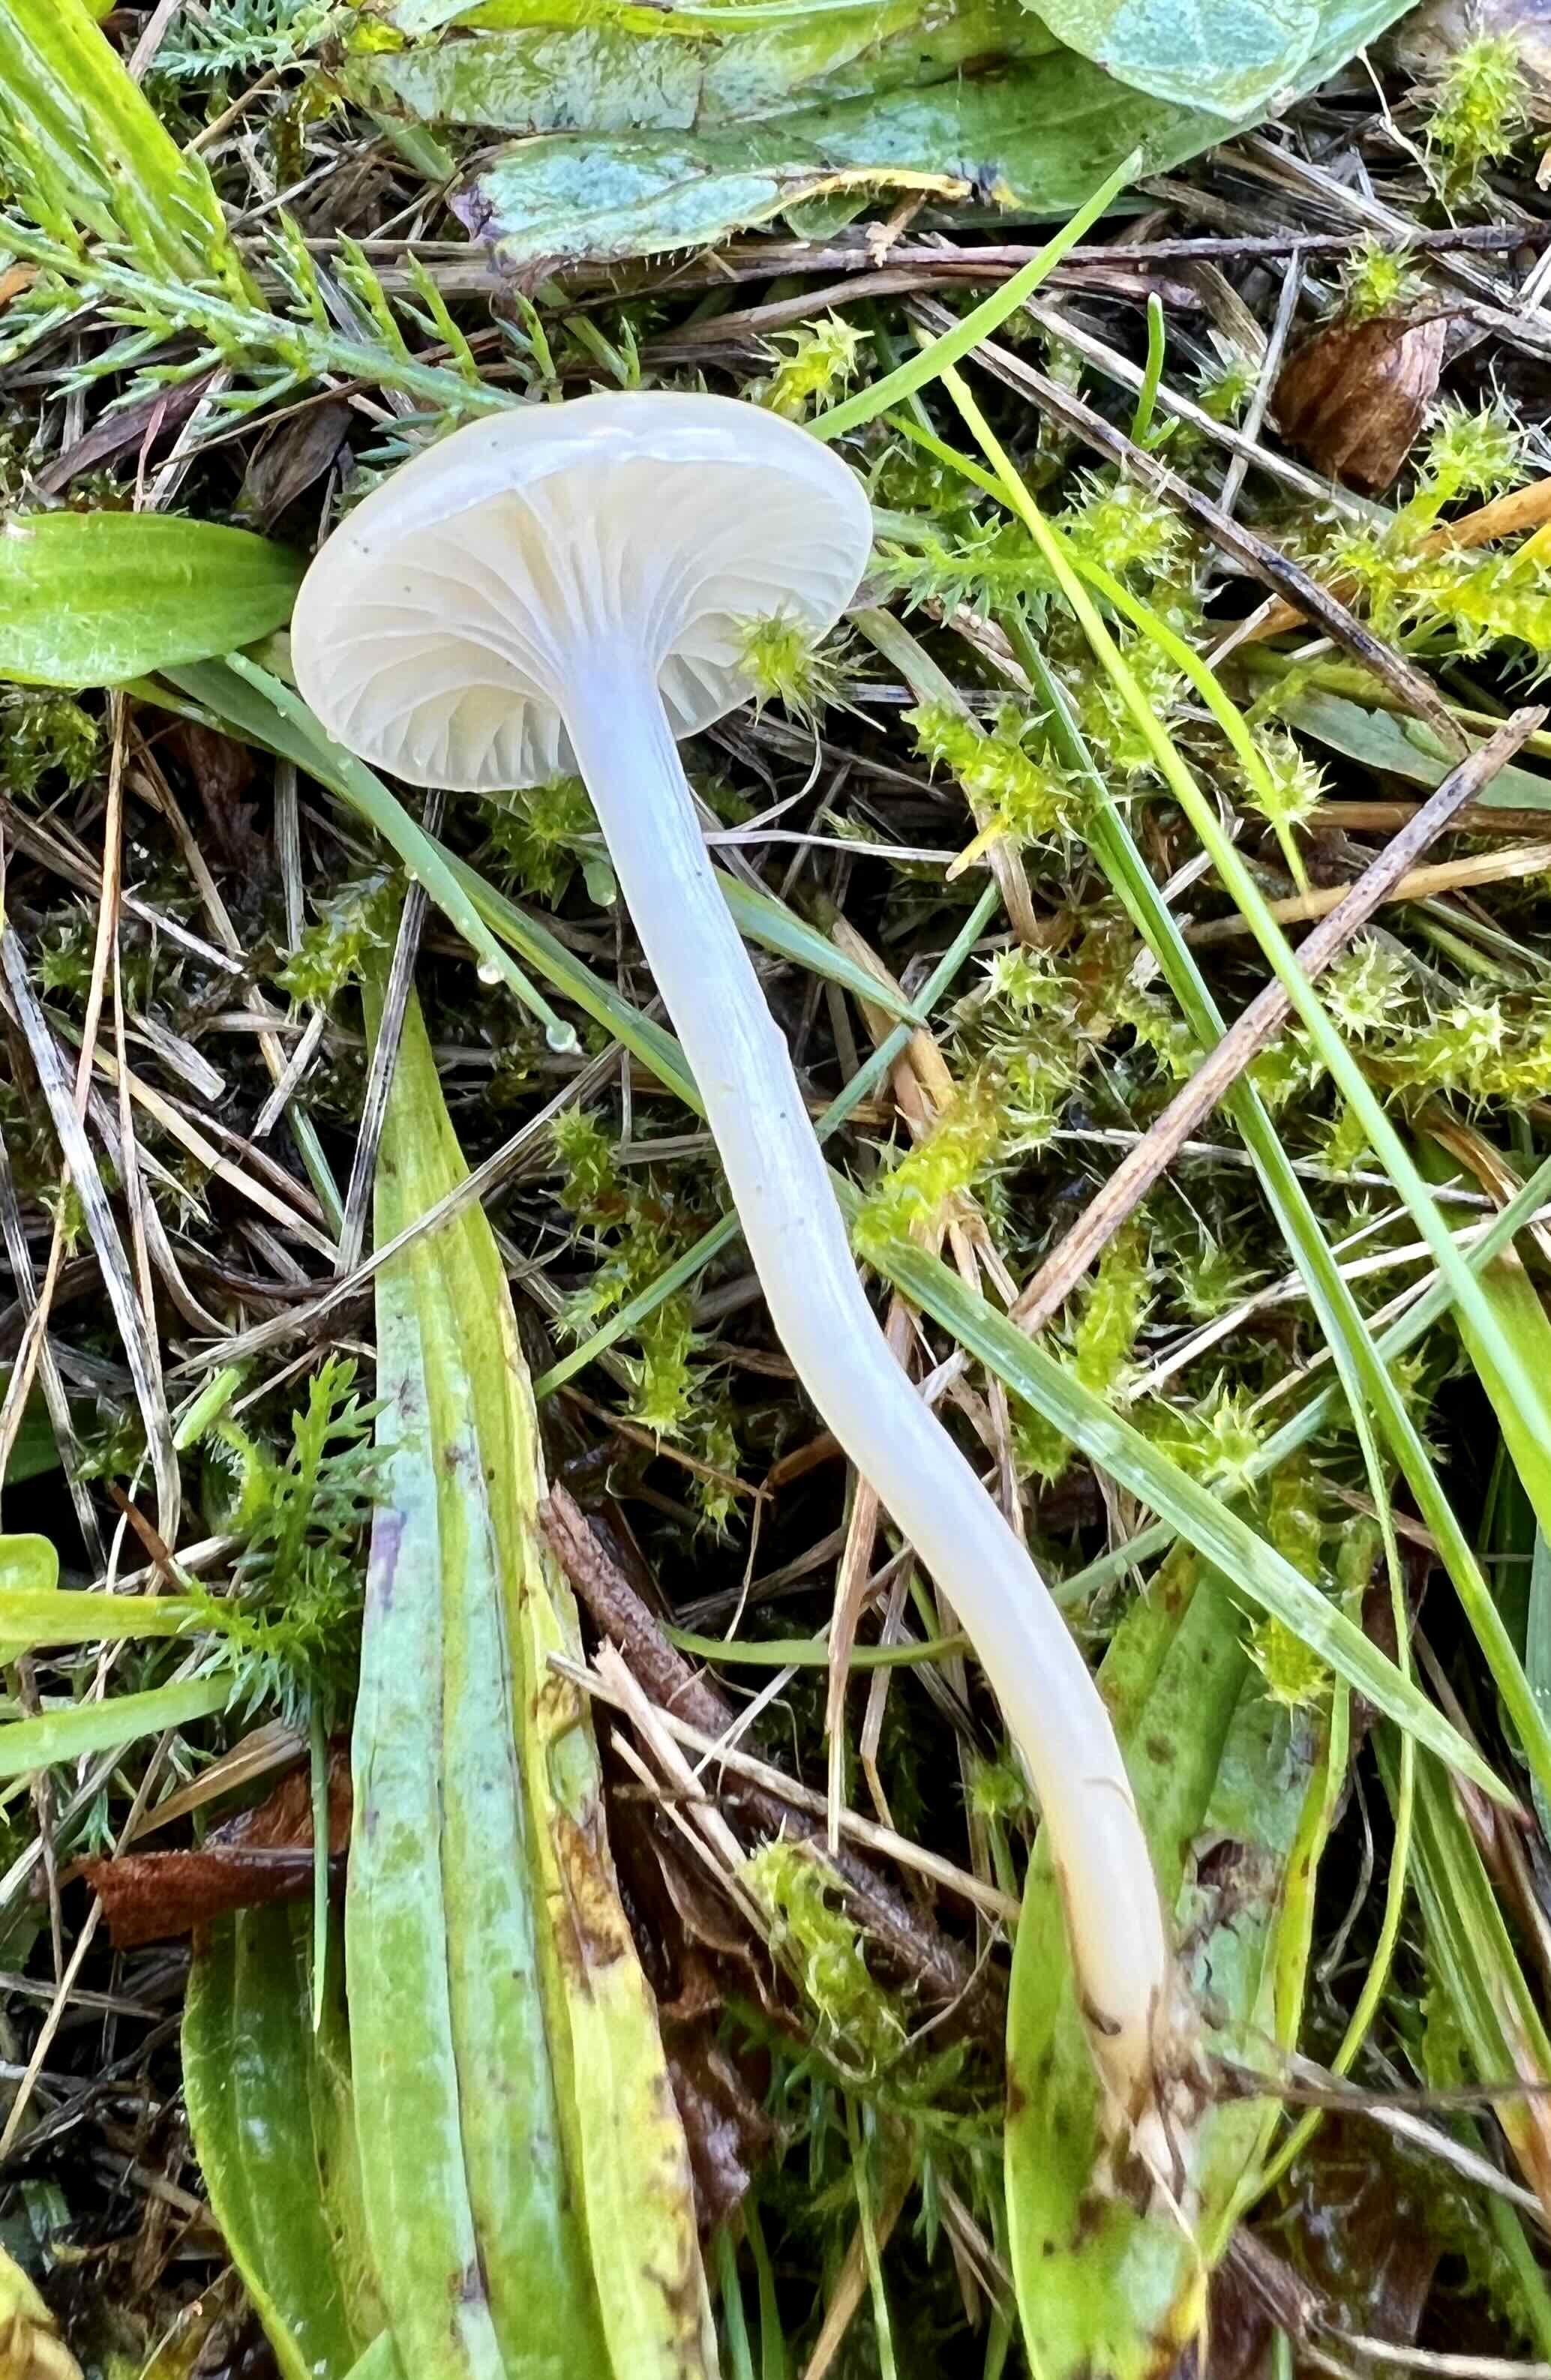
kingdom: Fungi
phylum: Basidiomycota
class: Agaricomycetes
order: Agaricales
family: Hygrophoraceae
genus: Cuphophyllus
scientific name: Cuphophyllus virgineus
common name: snehvid vokshat
